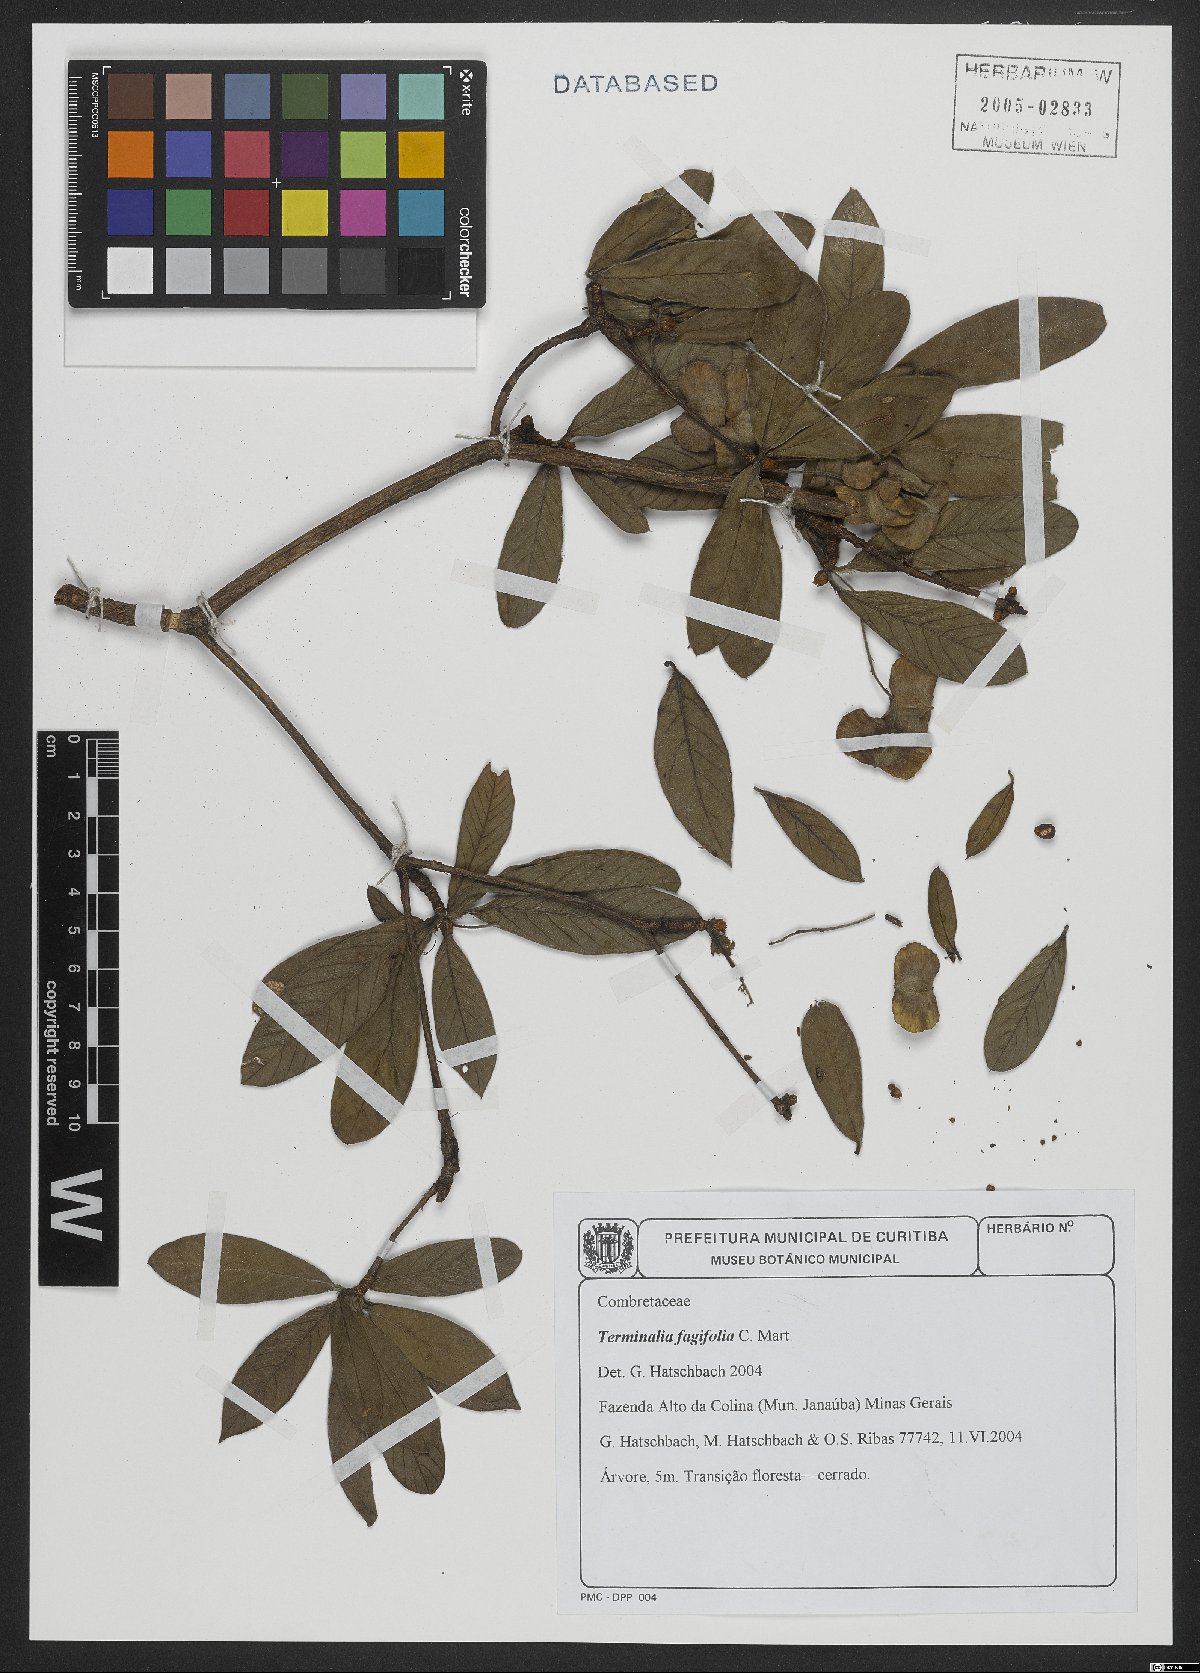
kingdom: Plantae
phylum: Tracheophyta
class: Magnoliopsida
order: Myrtales
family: Combretaceae
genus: Terminalia
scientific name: Terminalia fagifolia
